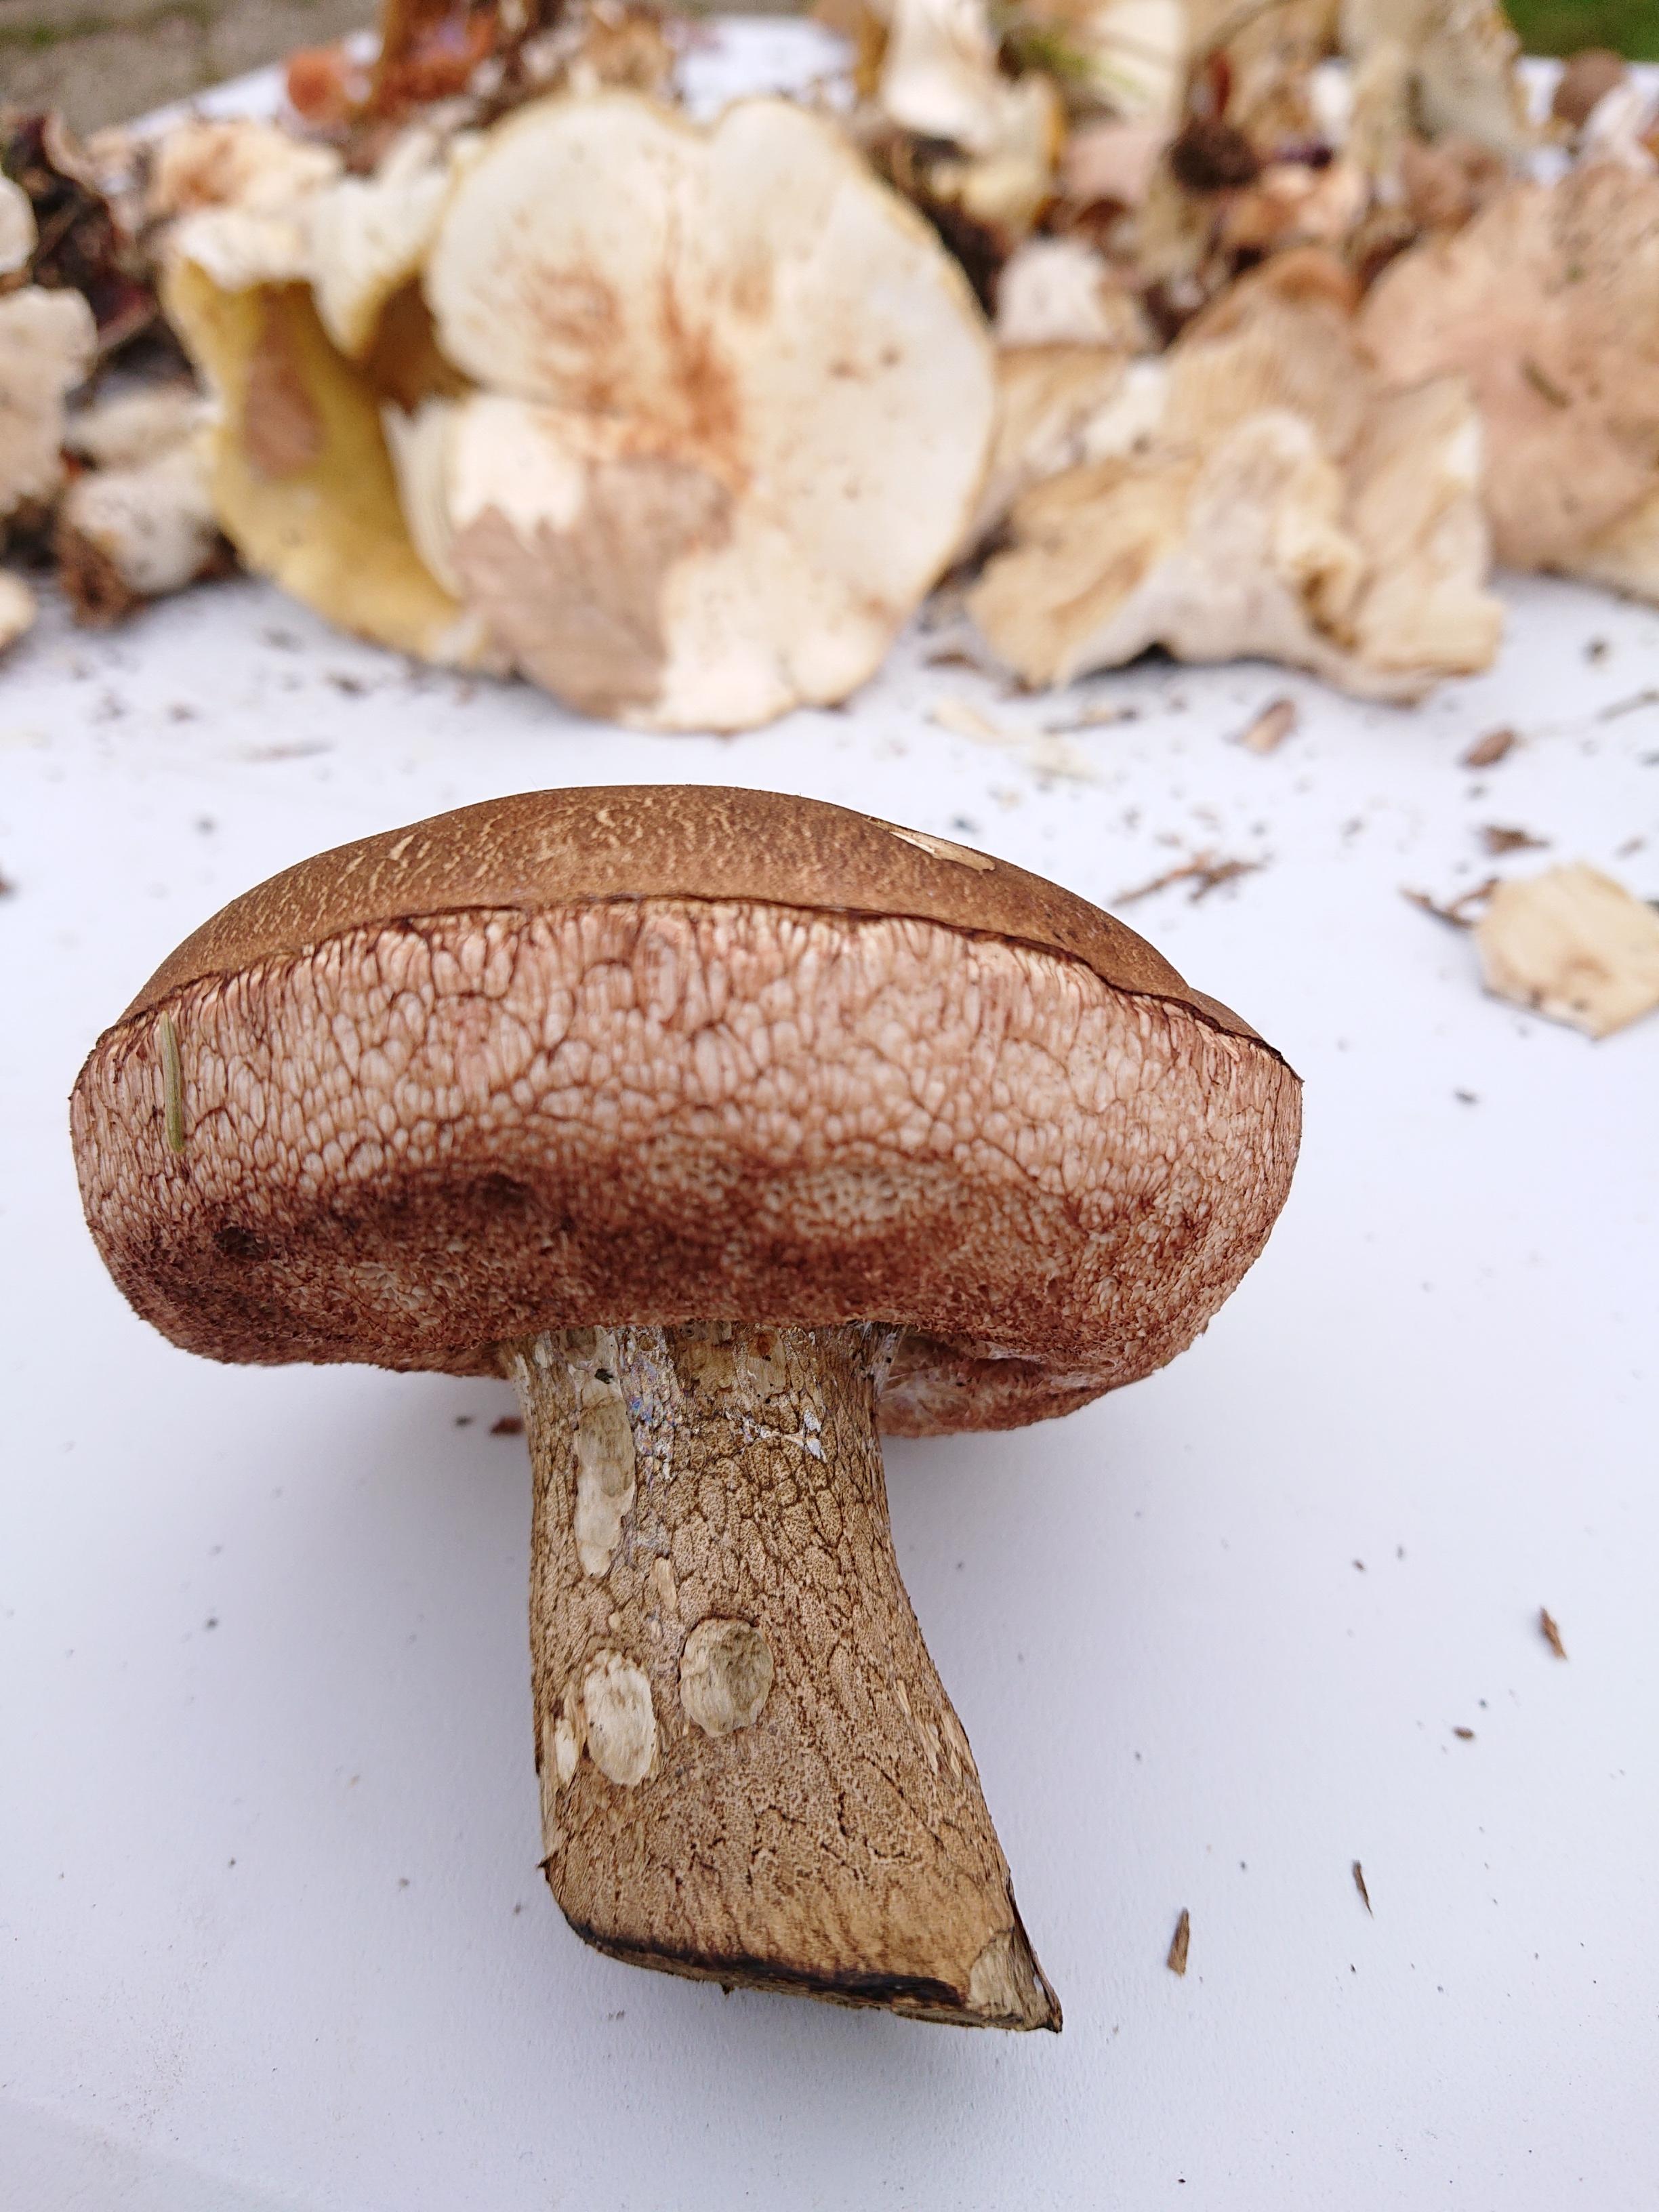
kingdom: Fungi
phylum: Basidiomycota
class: Agaricomycetes
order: Boletales
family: Boletaceae
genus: Tylopilus
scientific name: Tylopilus felleus
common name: galderørhat
